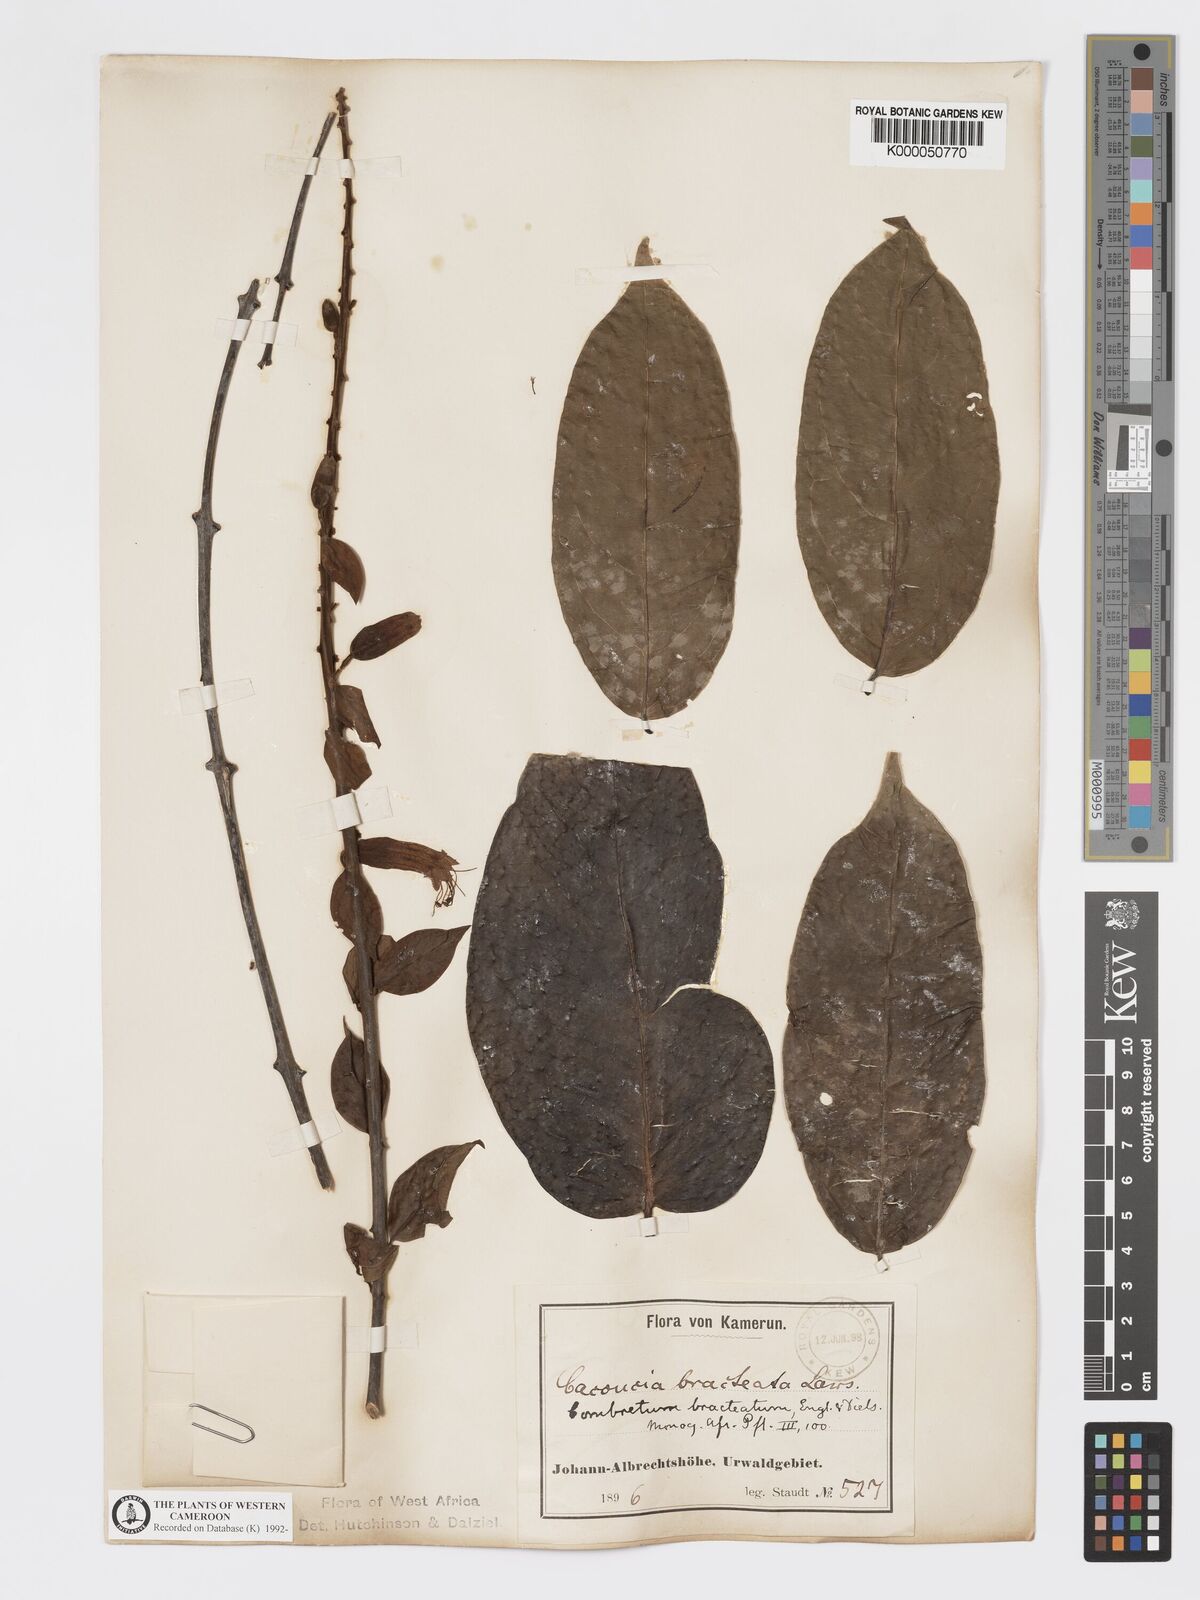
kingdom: Plantae
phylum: Tracheophyta
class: Magnoliopsida
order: Myrtales
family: Combretaceae
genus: Combretum
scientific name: Combretum bracteatum
